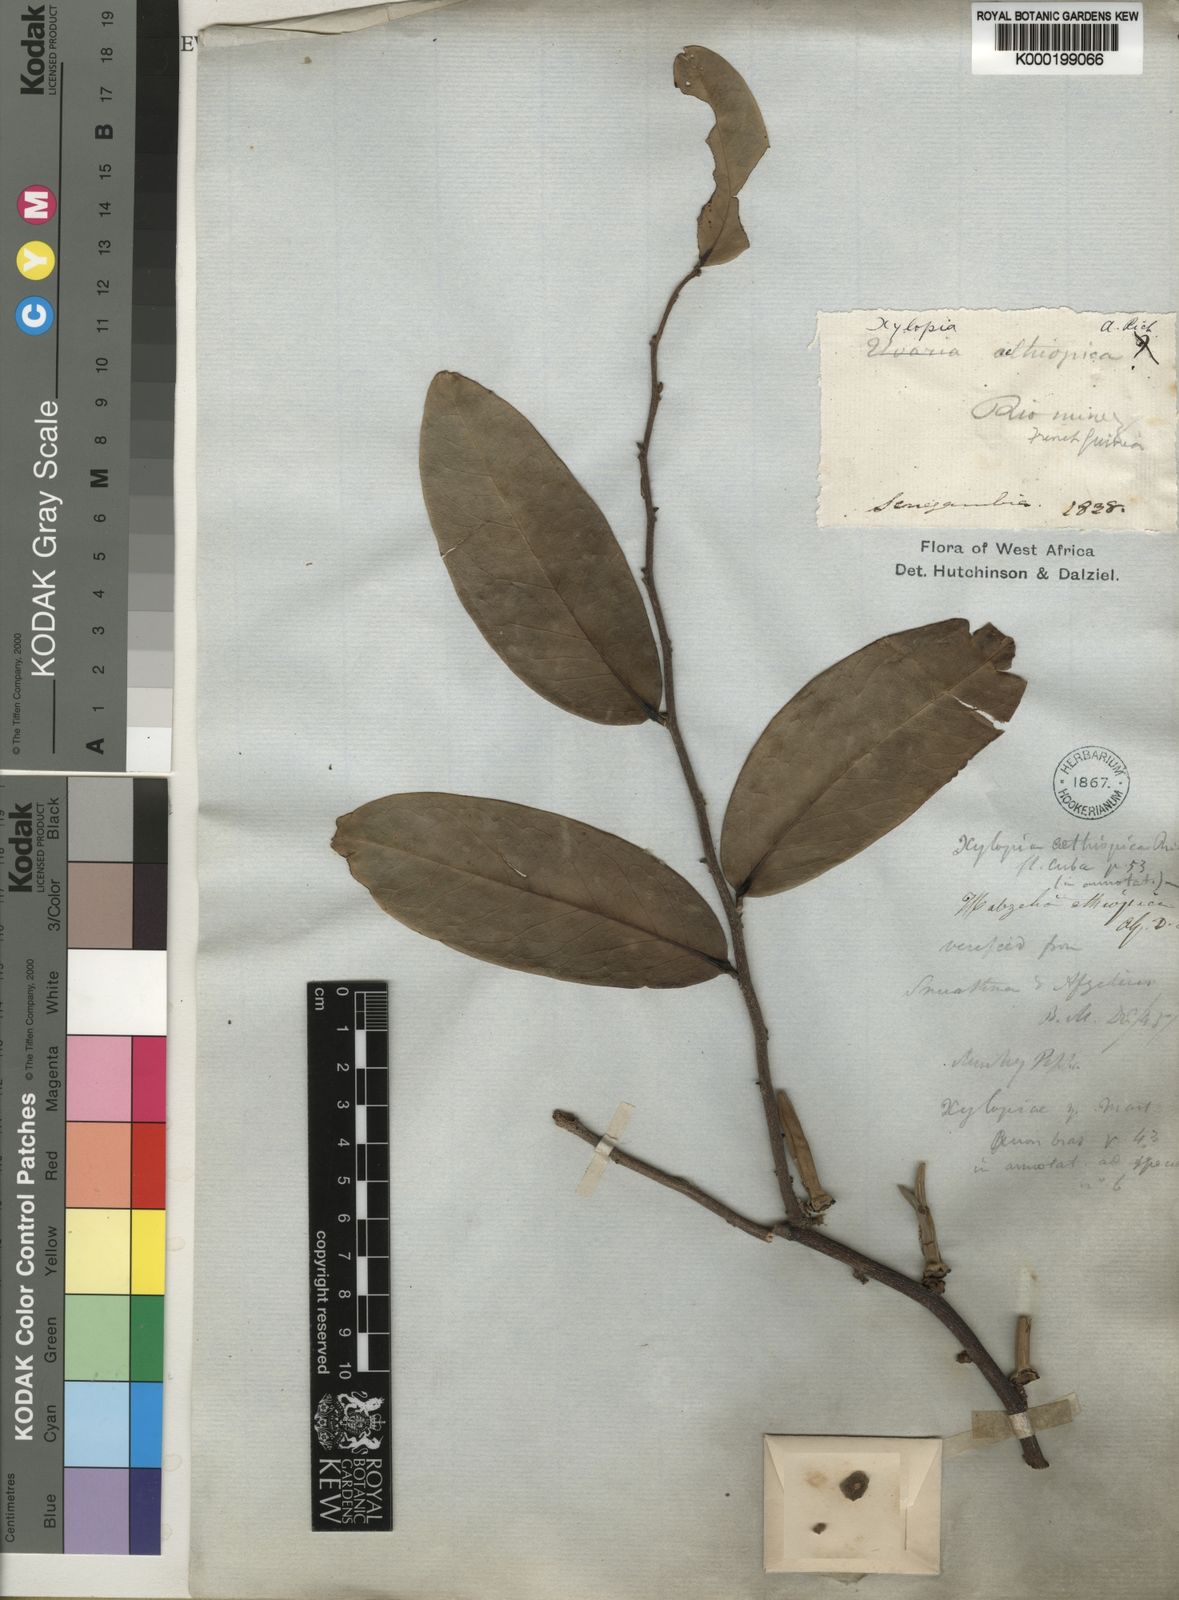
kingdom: Plantae
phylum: Tracheophyta
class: Magnoliopsida
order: Magnoliales
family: Annonaceae
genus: Xylopia
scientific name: Xylopia aethiopica
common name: Ethiopian-pepper
